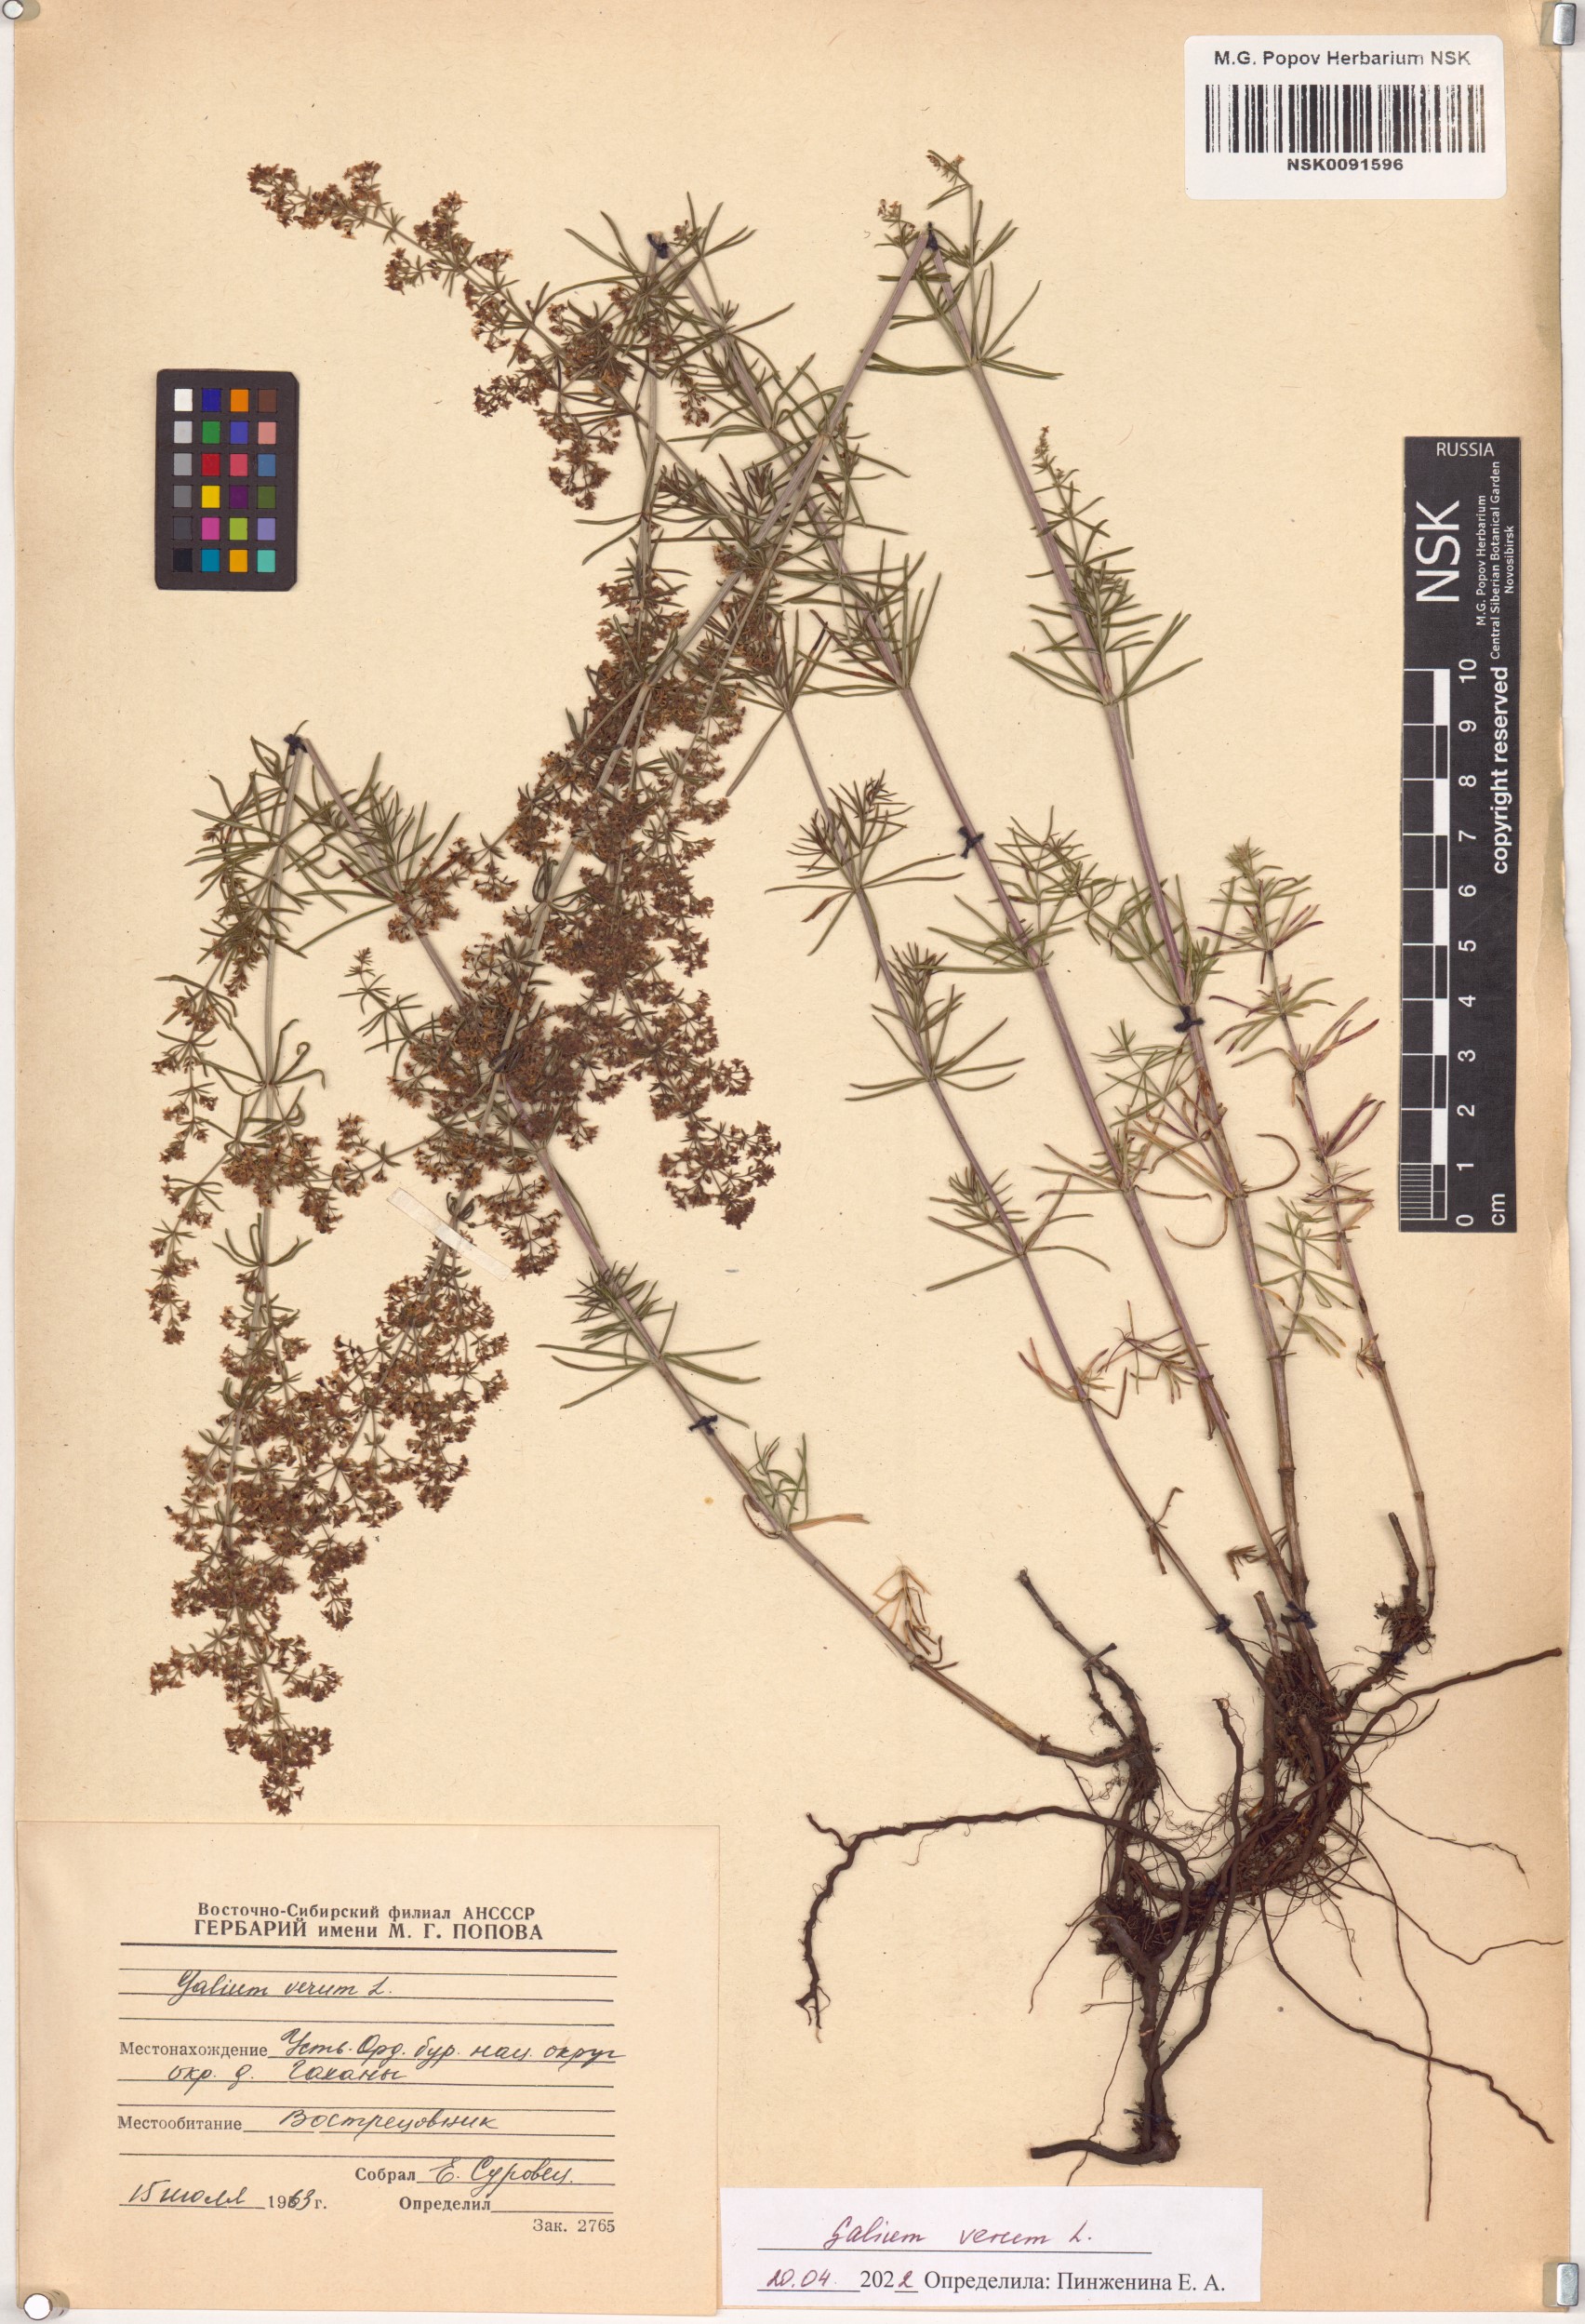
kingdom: Plantae
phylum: Tracheophyta
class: Magnoliopsida
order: Gentianales
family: Rubiaceae
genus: Galium
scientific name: Galium verum
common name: Lady's bedstraw
